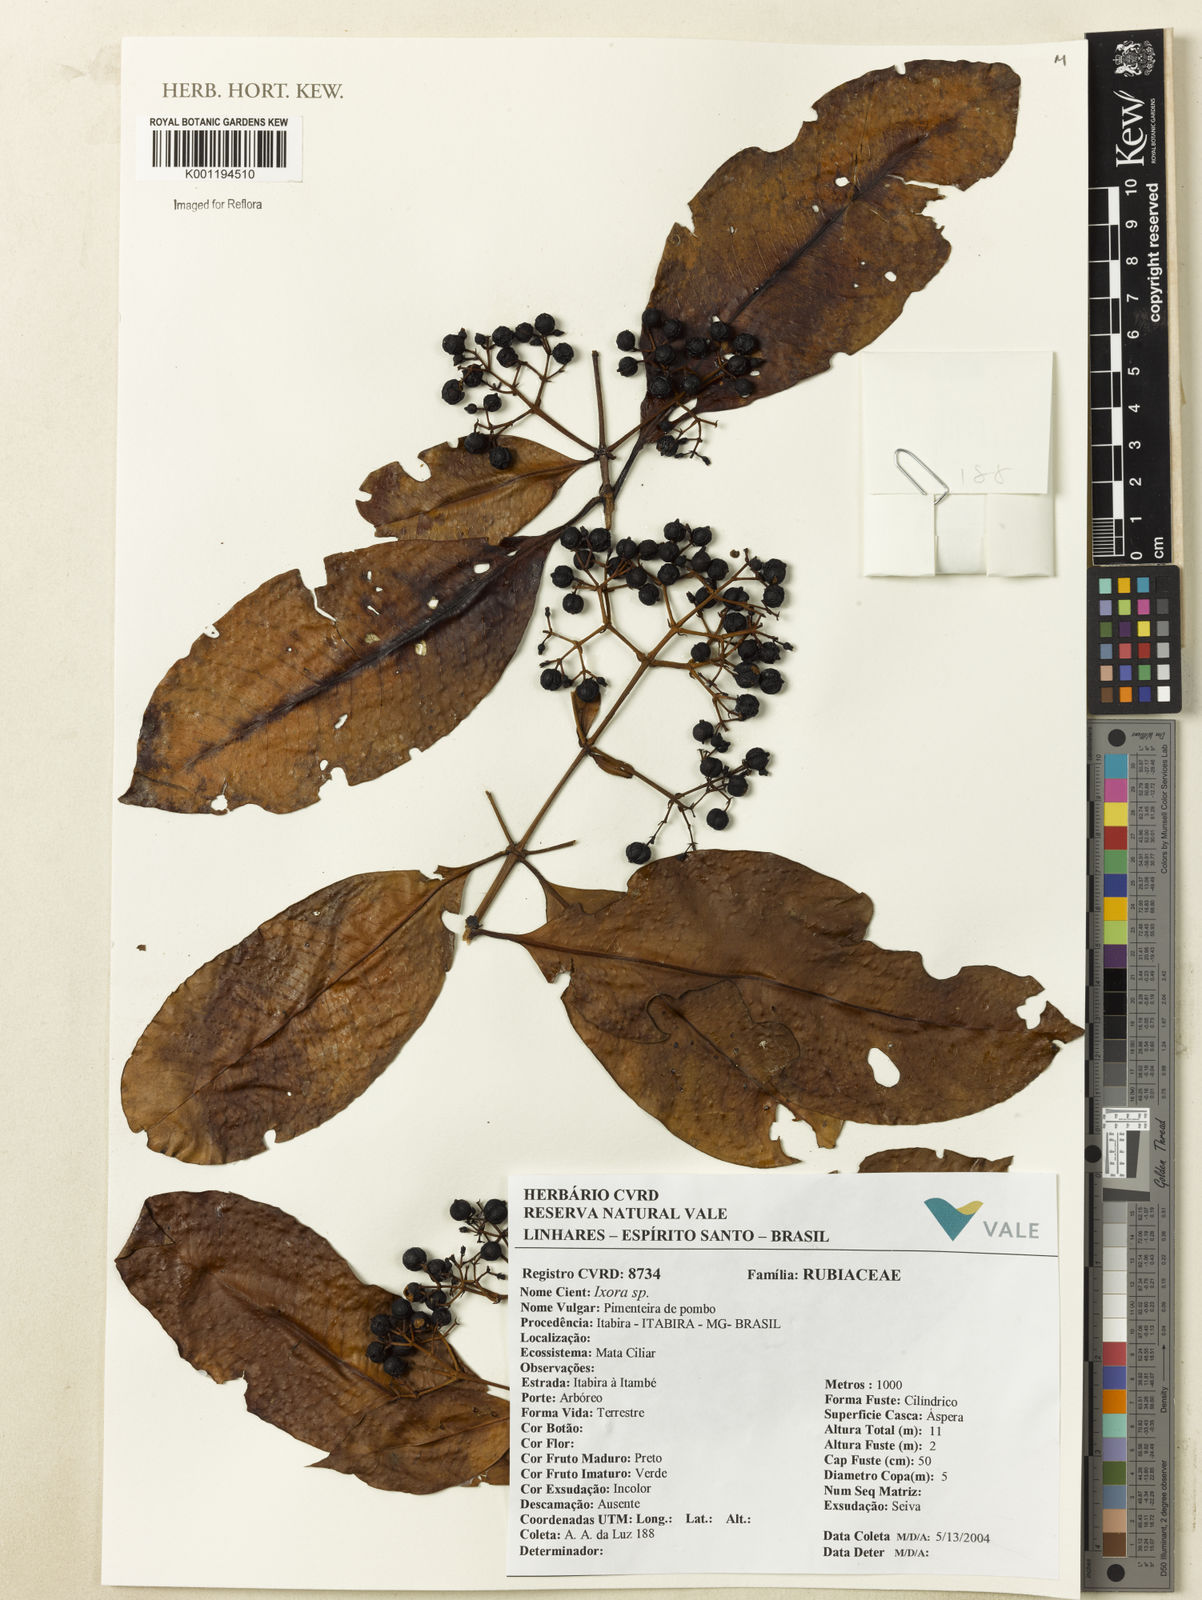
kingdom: Plantae
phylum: Tracheophyta
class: Magnoliopsida
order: Gentianales
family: Rubiaceae
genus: Ixora
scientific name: Ixora
